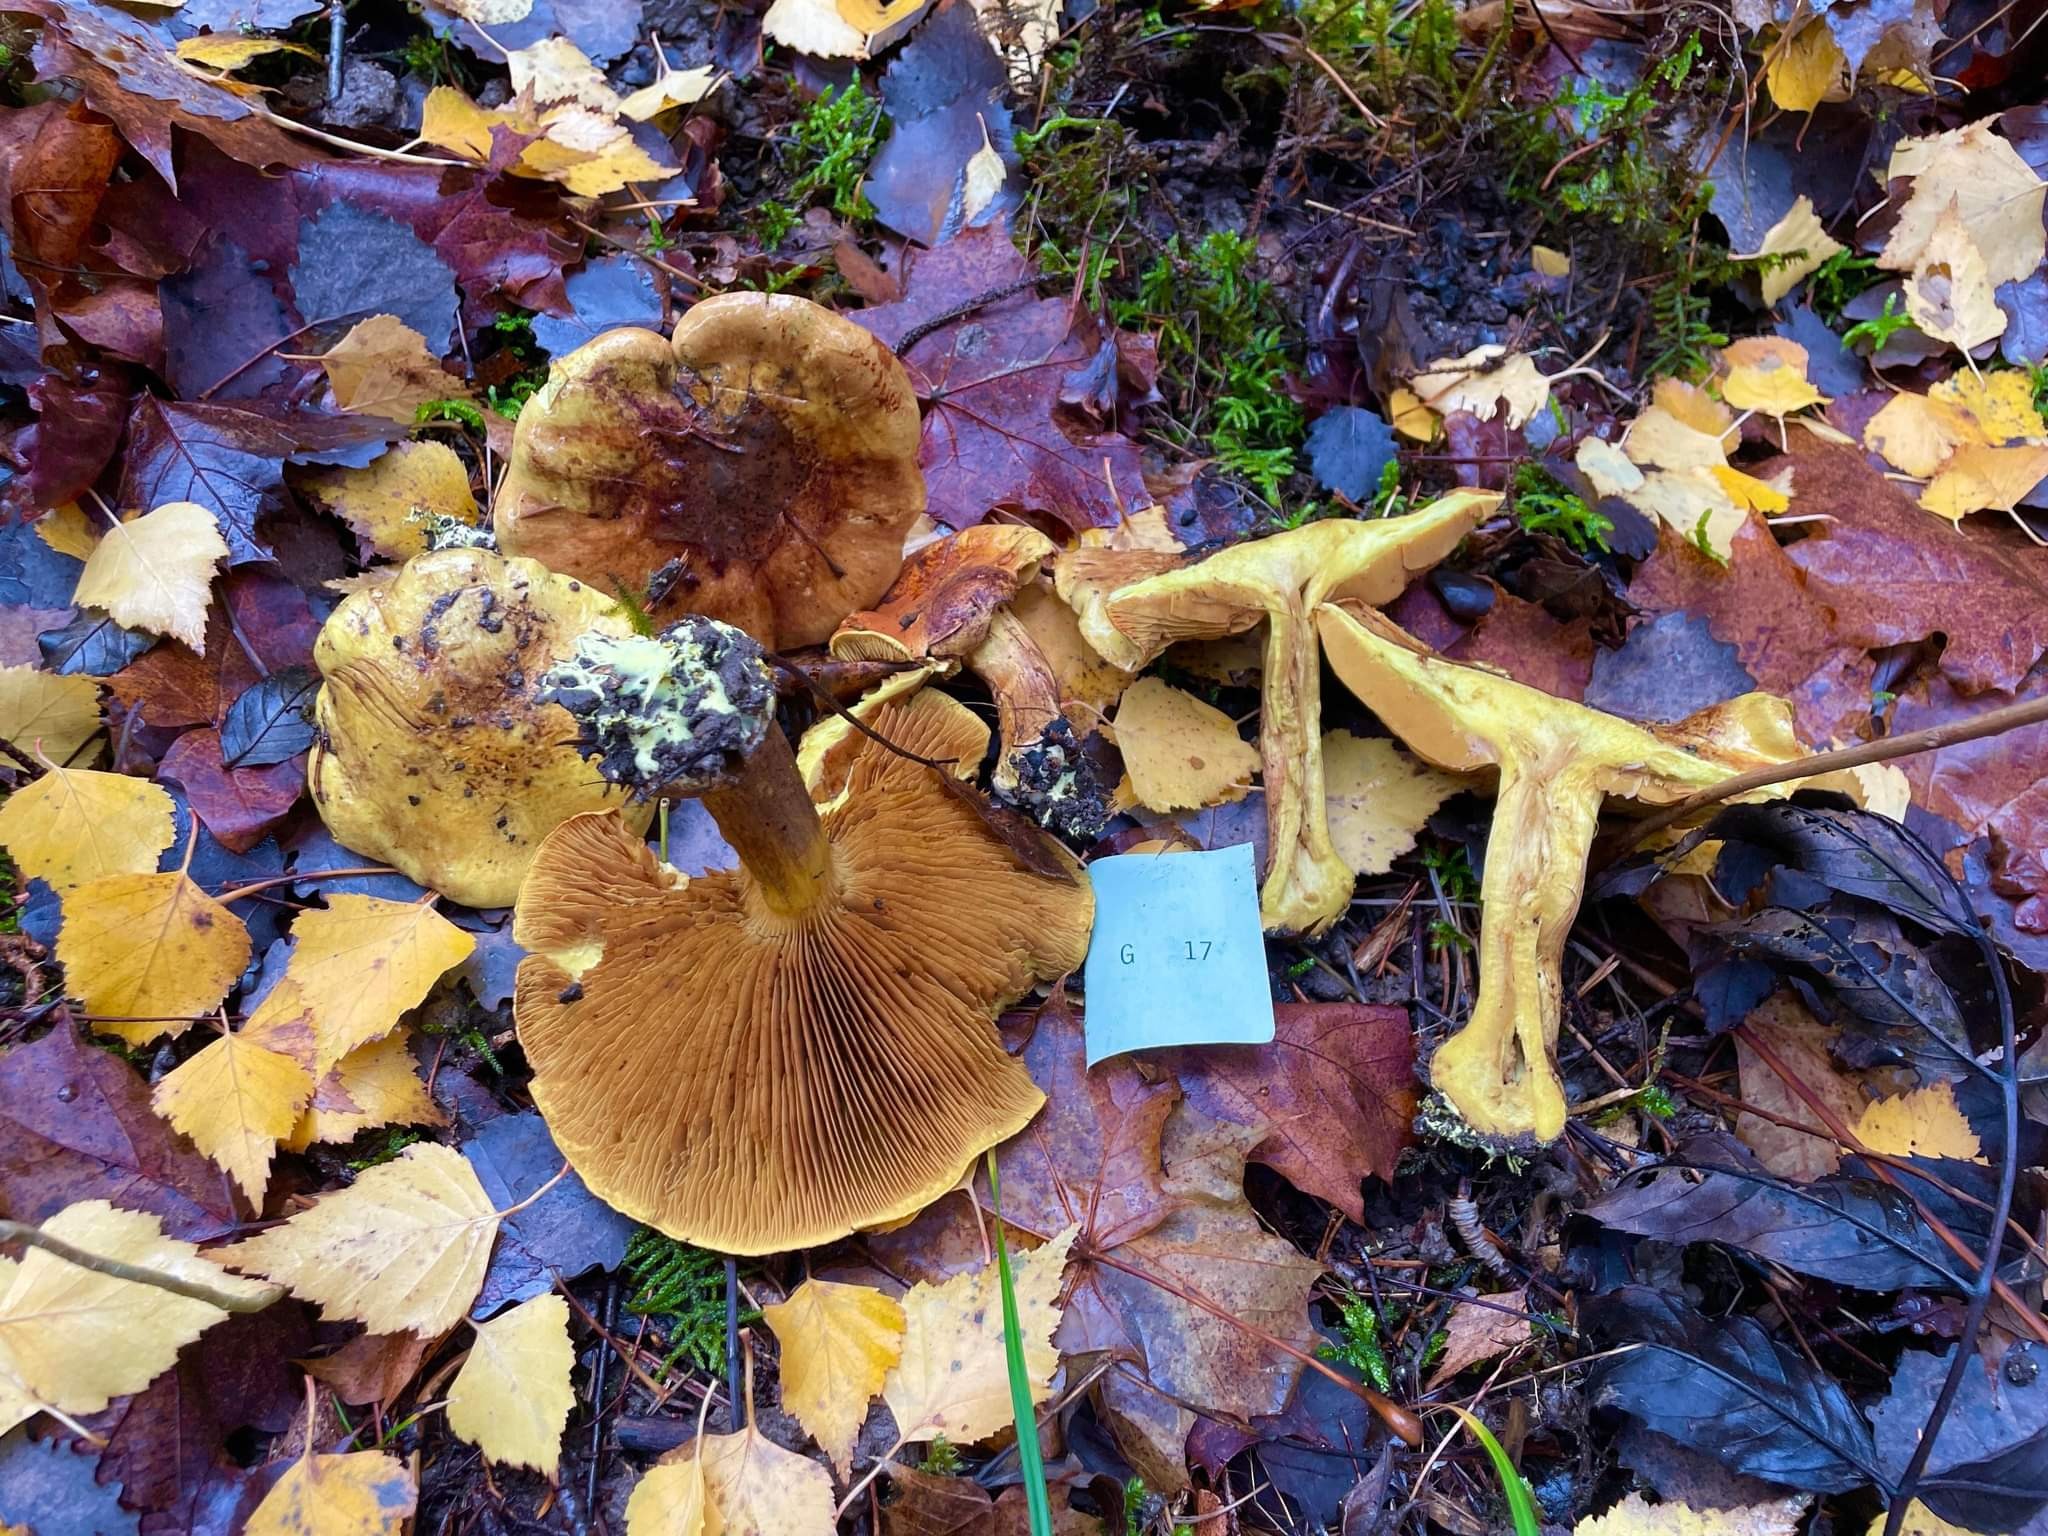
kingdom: Fungi
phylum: Basidiomycota
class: Agaricomycetes
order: Agaricales
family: Cortinariaceae
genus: Calonarius
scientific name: Calonarius meinhardii
